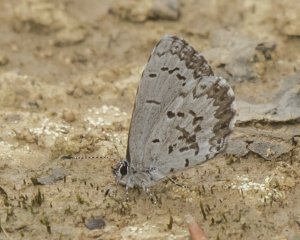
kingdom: Animalia
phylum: Arthropoda
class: Insecta
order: Lepidoptera
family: Lycaenidae
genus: Celastrina
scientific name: Celastrina lucia
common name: Northern Spring Azure
